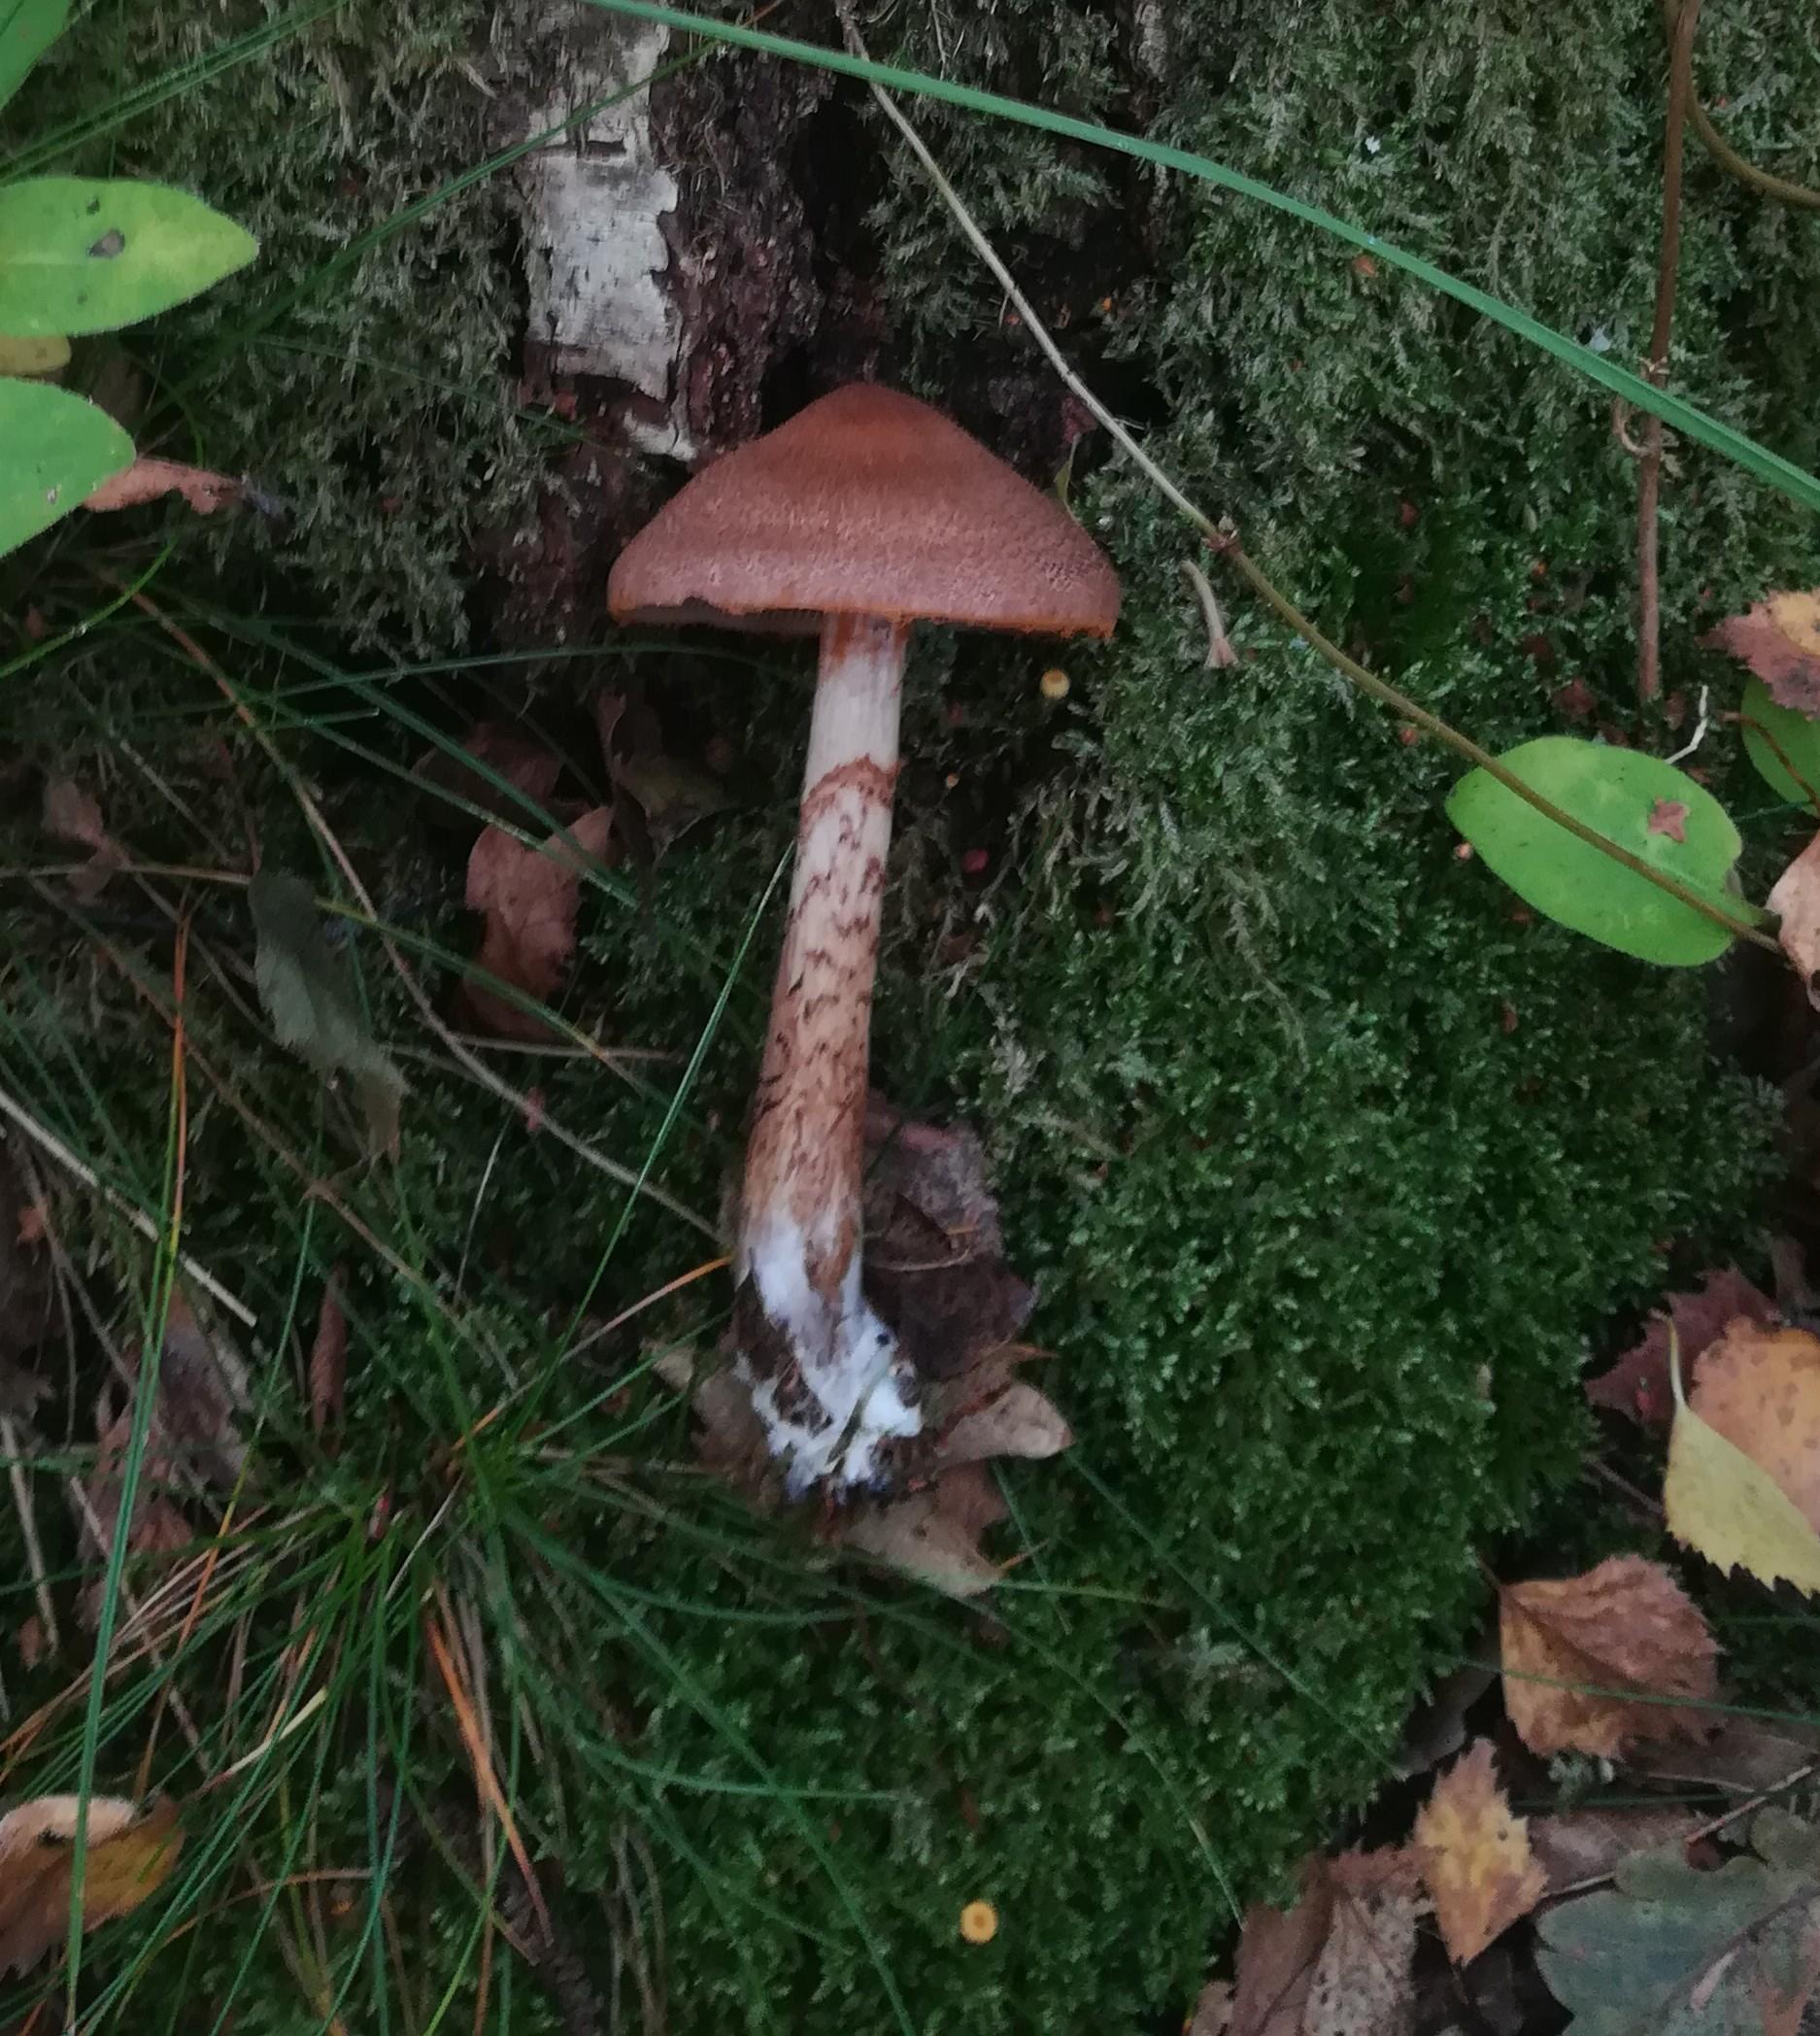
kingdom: Fungi
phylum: Basidiomycota
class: Agaricomycetes
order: Agaricales
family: Cortinariaceae
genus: Cortinarius
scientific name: Cortinarius pholideus
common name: brunskællet slørhat
